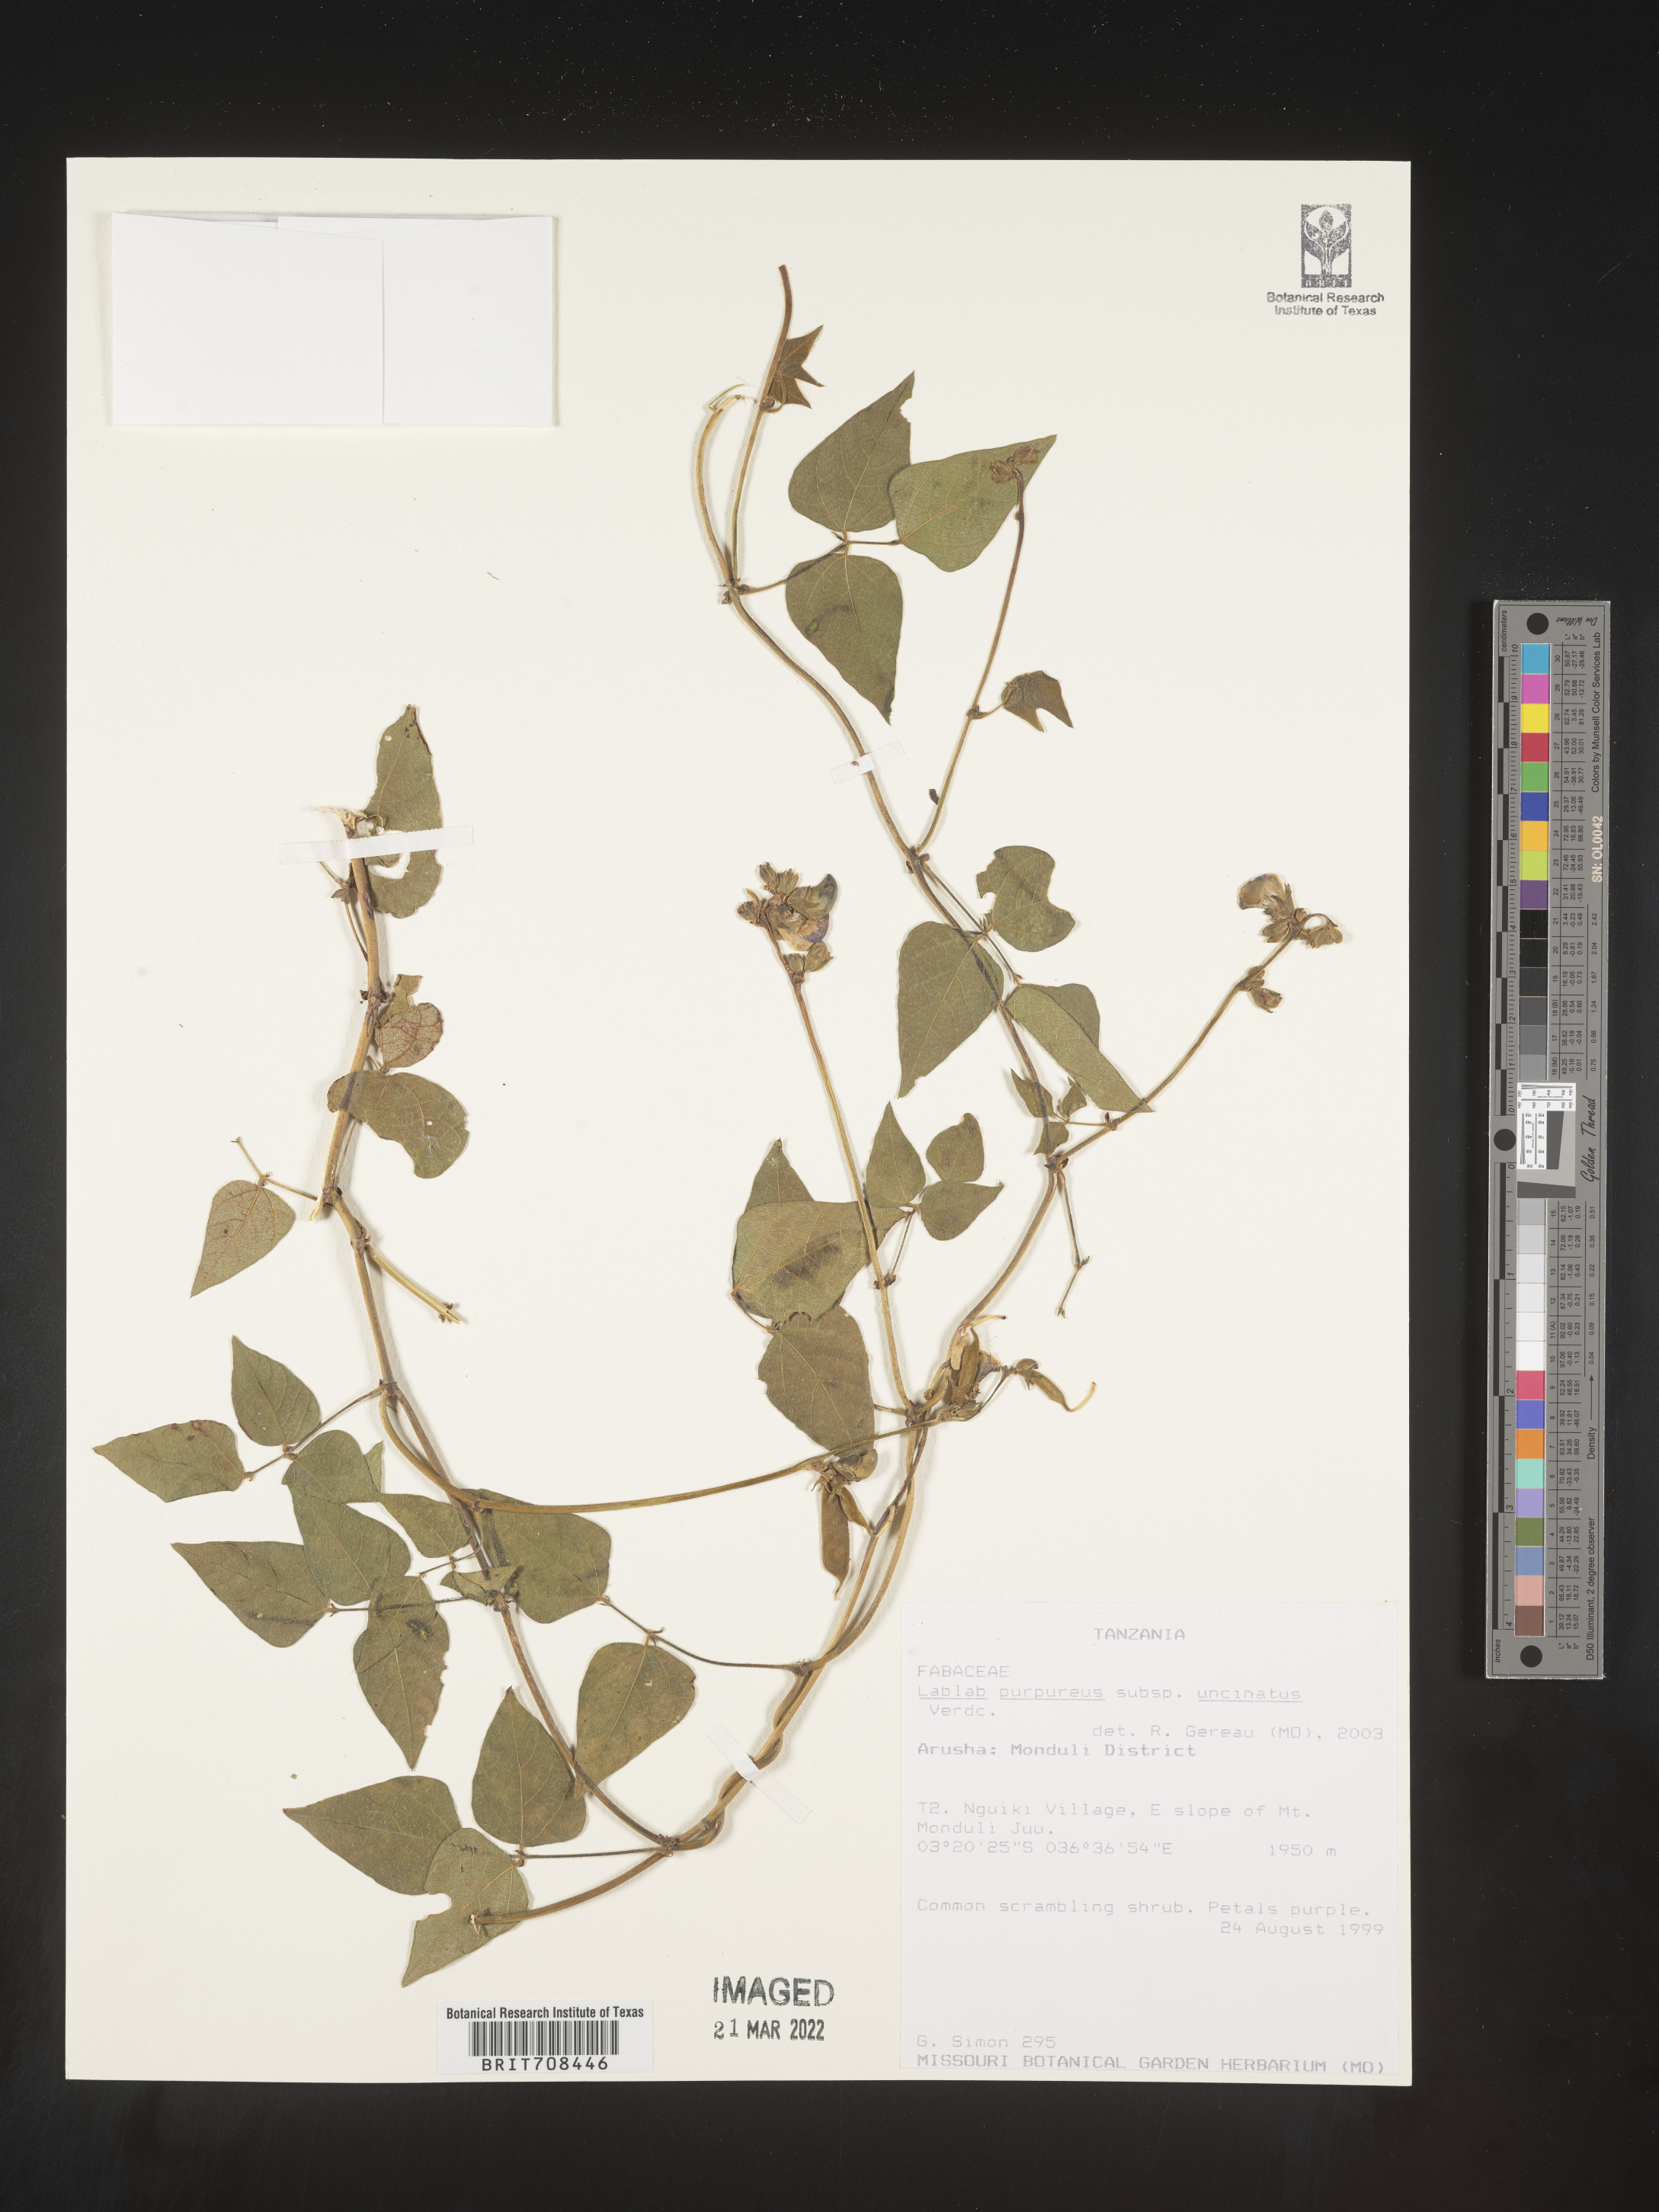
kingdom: Plantae
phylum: Tracheophyta
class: Magnoliopsida
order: Fabales
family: Fabaceae
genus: Lablab
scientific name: Lablab
